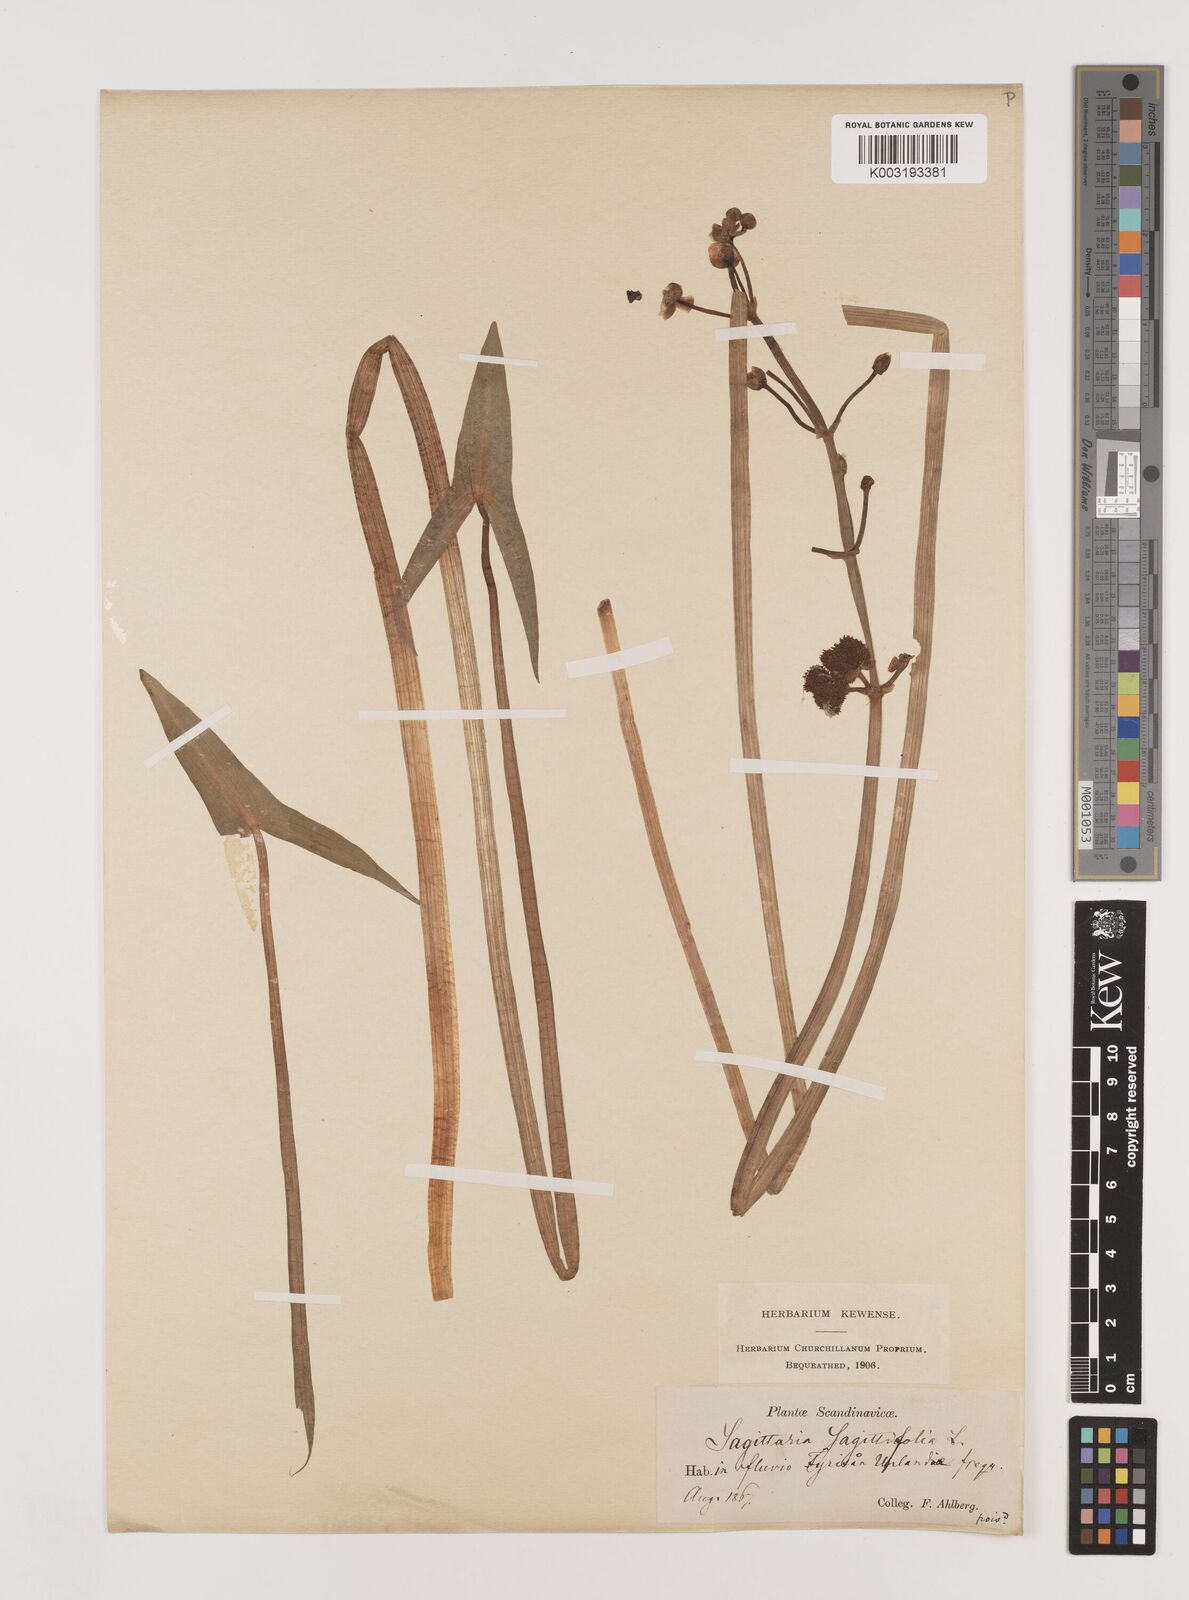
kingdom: Plantae
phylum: Tracheophyta
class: Liliopsida
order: Alismatales
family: Alismataceae
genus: Sagittaria
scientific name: Sagittaria sagittifolia
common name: Arrowhead
